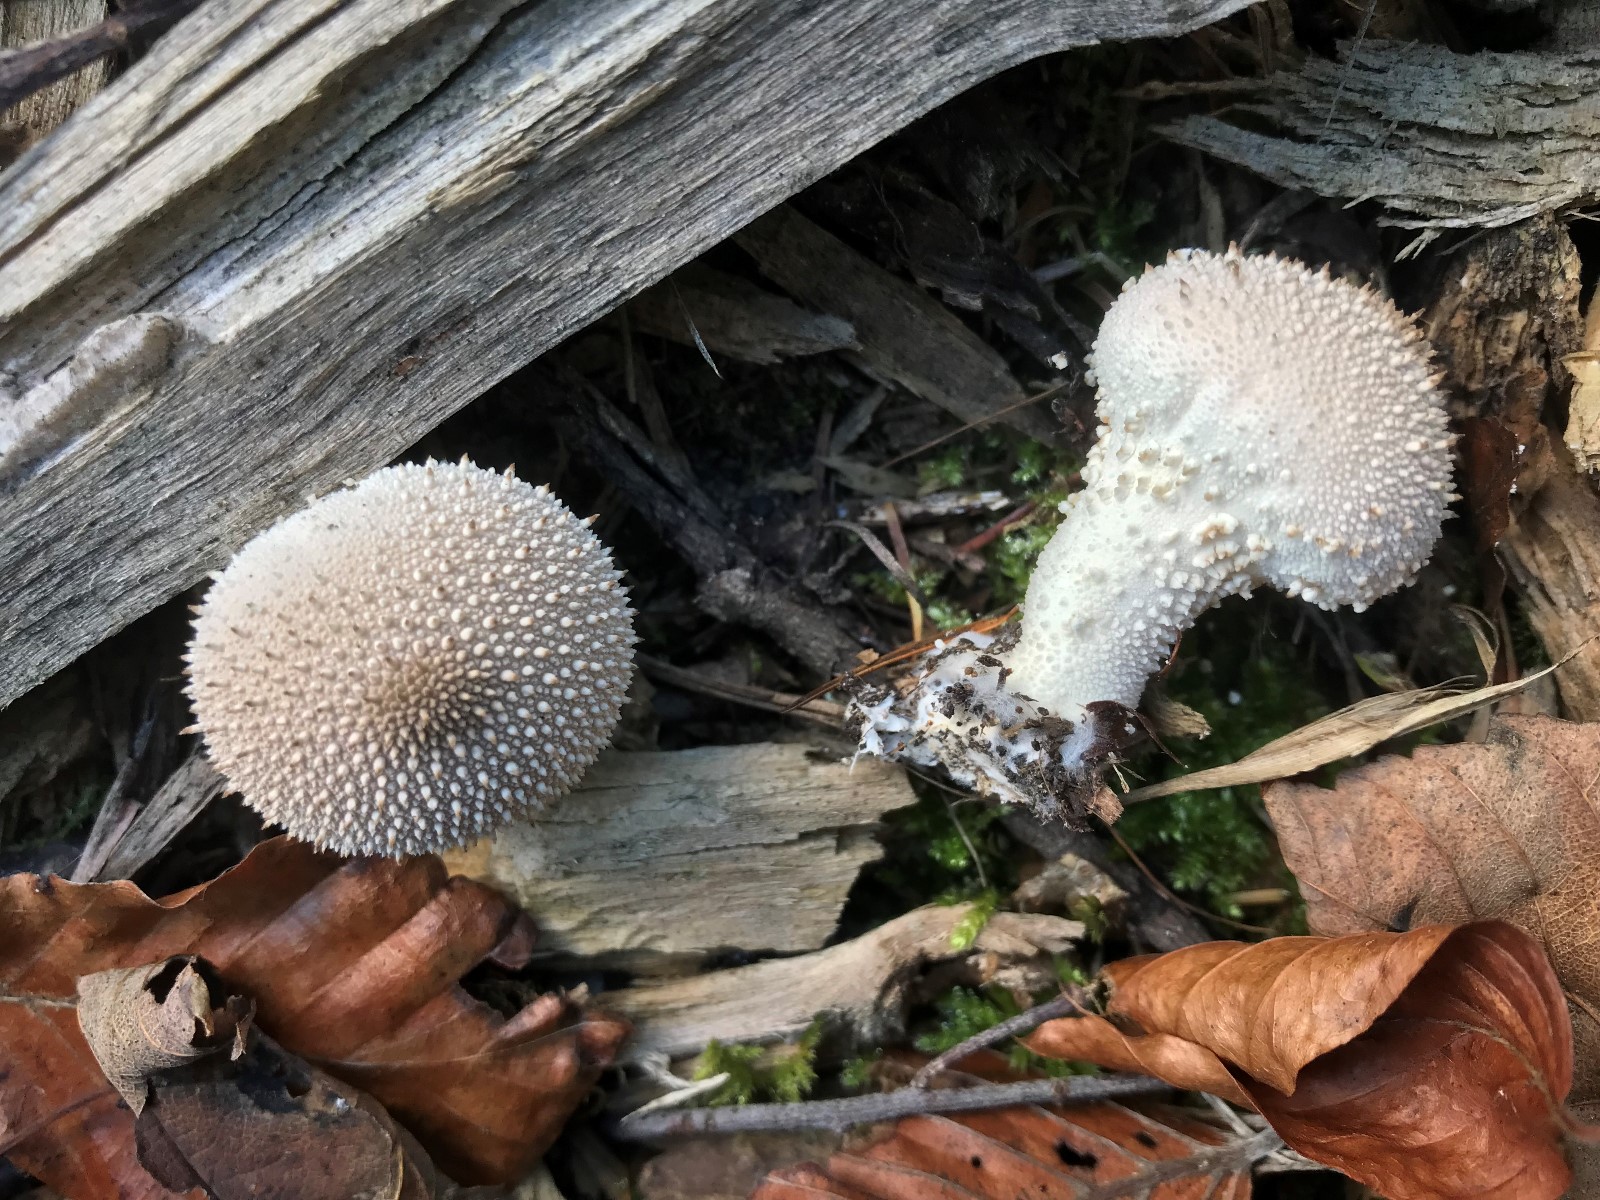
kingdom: Fungi
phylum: Basidiomycota
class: Agaricomycetes
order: Agaricales
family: Lycoperdaceae
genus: Lycoperdon
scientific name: Lycoperdon perlatum
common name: krystal-støvbold
